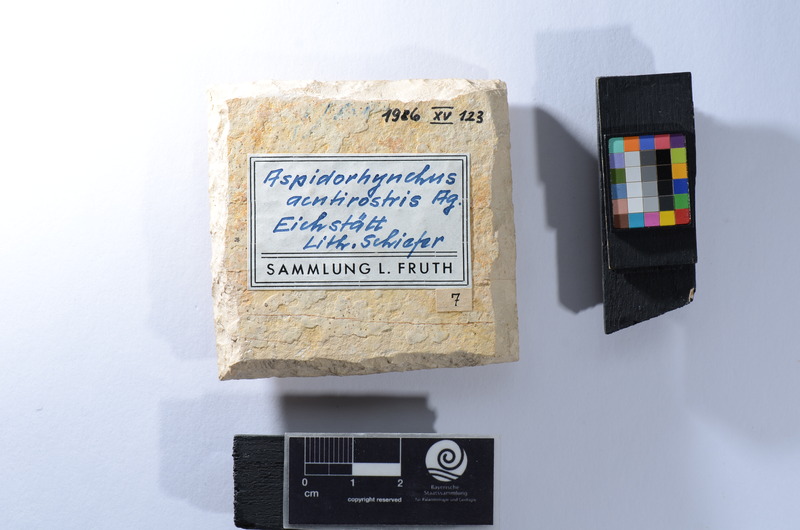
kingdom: Animalia
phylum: Chordata
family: Aspidorhynchidae
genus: Belonostomus
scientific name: Belonostomus tenuirostris
